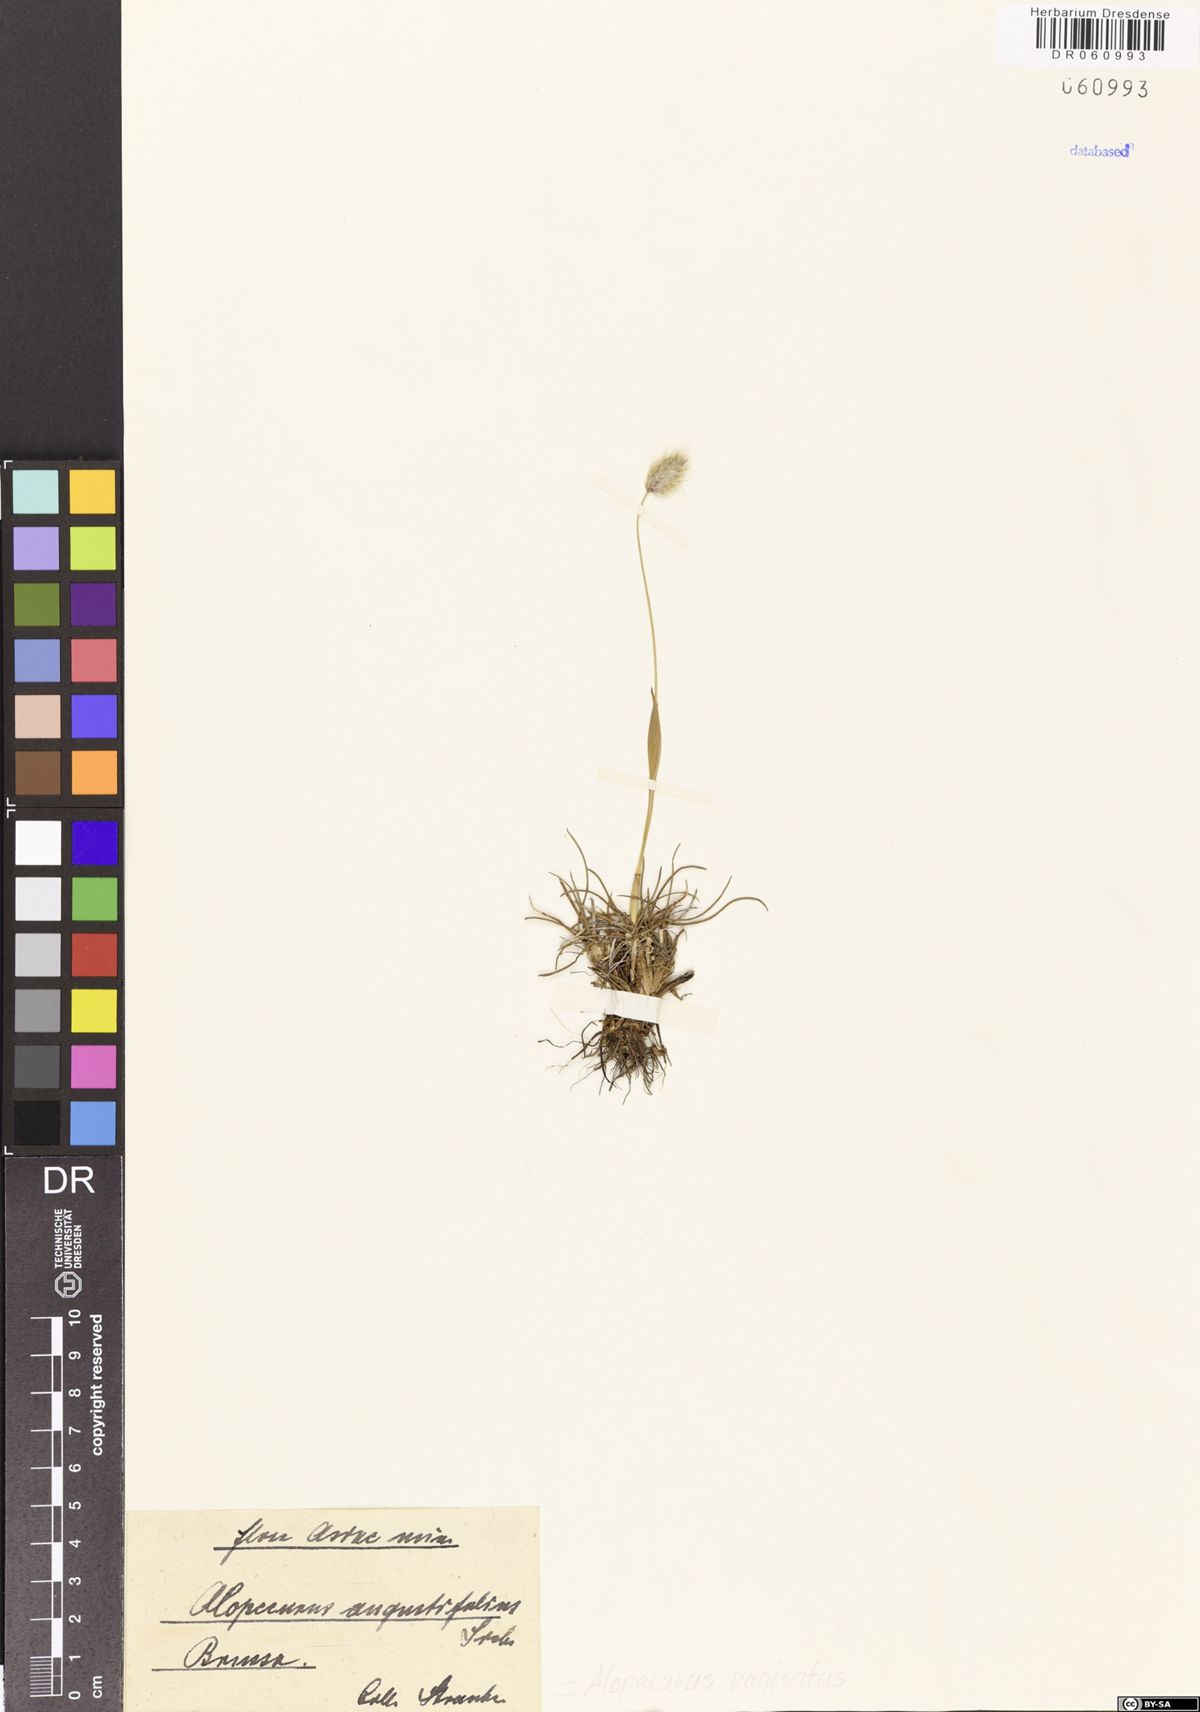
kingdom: Plantae
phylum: Tracheophyta
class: Liliopsida
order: Poales
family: Poaceae
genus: Alopecurus
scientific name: Alopecurus vaginatus
